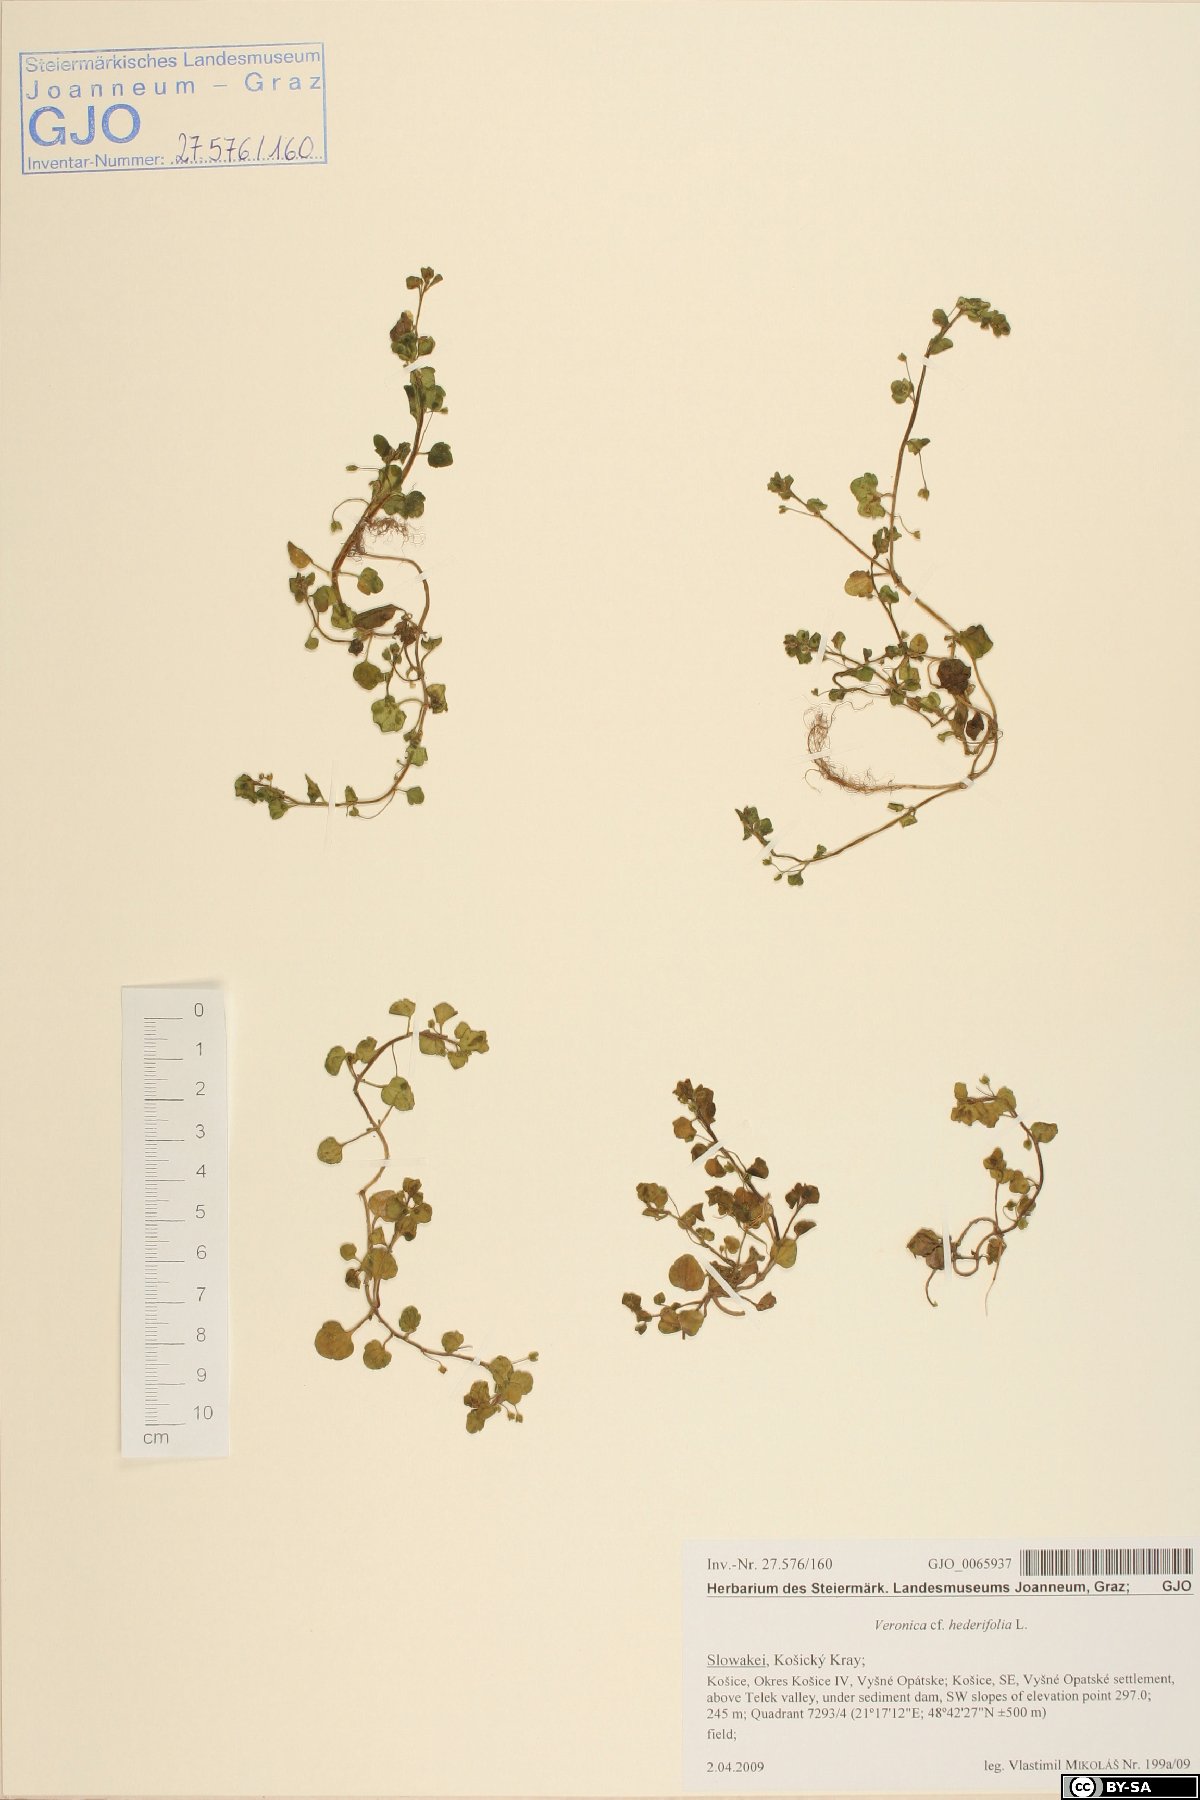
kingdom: Plantae
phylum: Tracheophyta
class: Magnoliopsida
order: Lamiales
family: Plantaginaceae
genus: Veronica
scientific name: Veronica hederifolia
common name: Ivy-leaved speedwell
